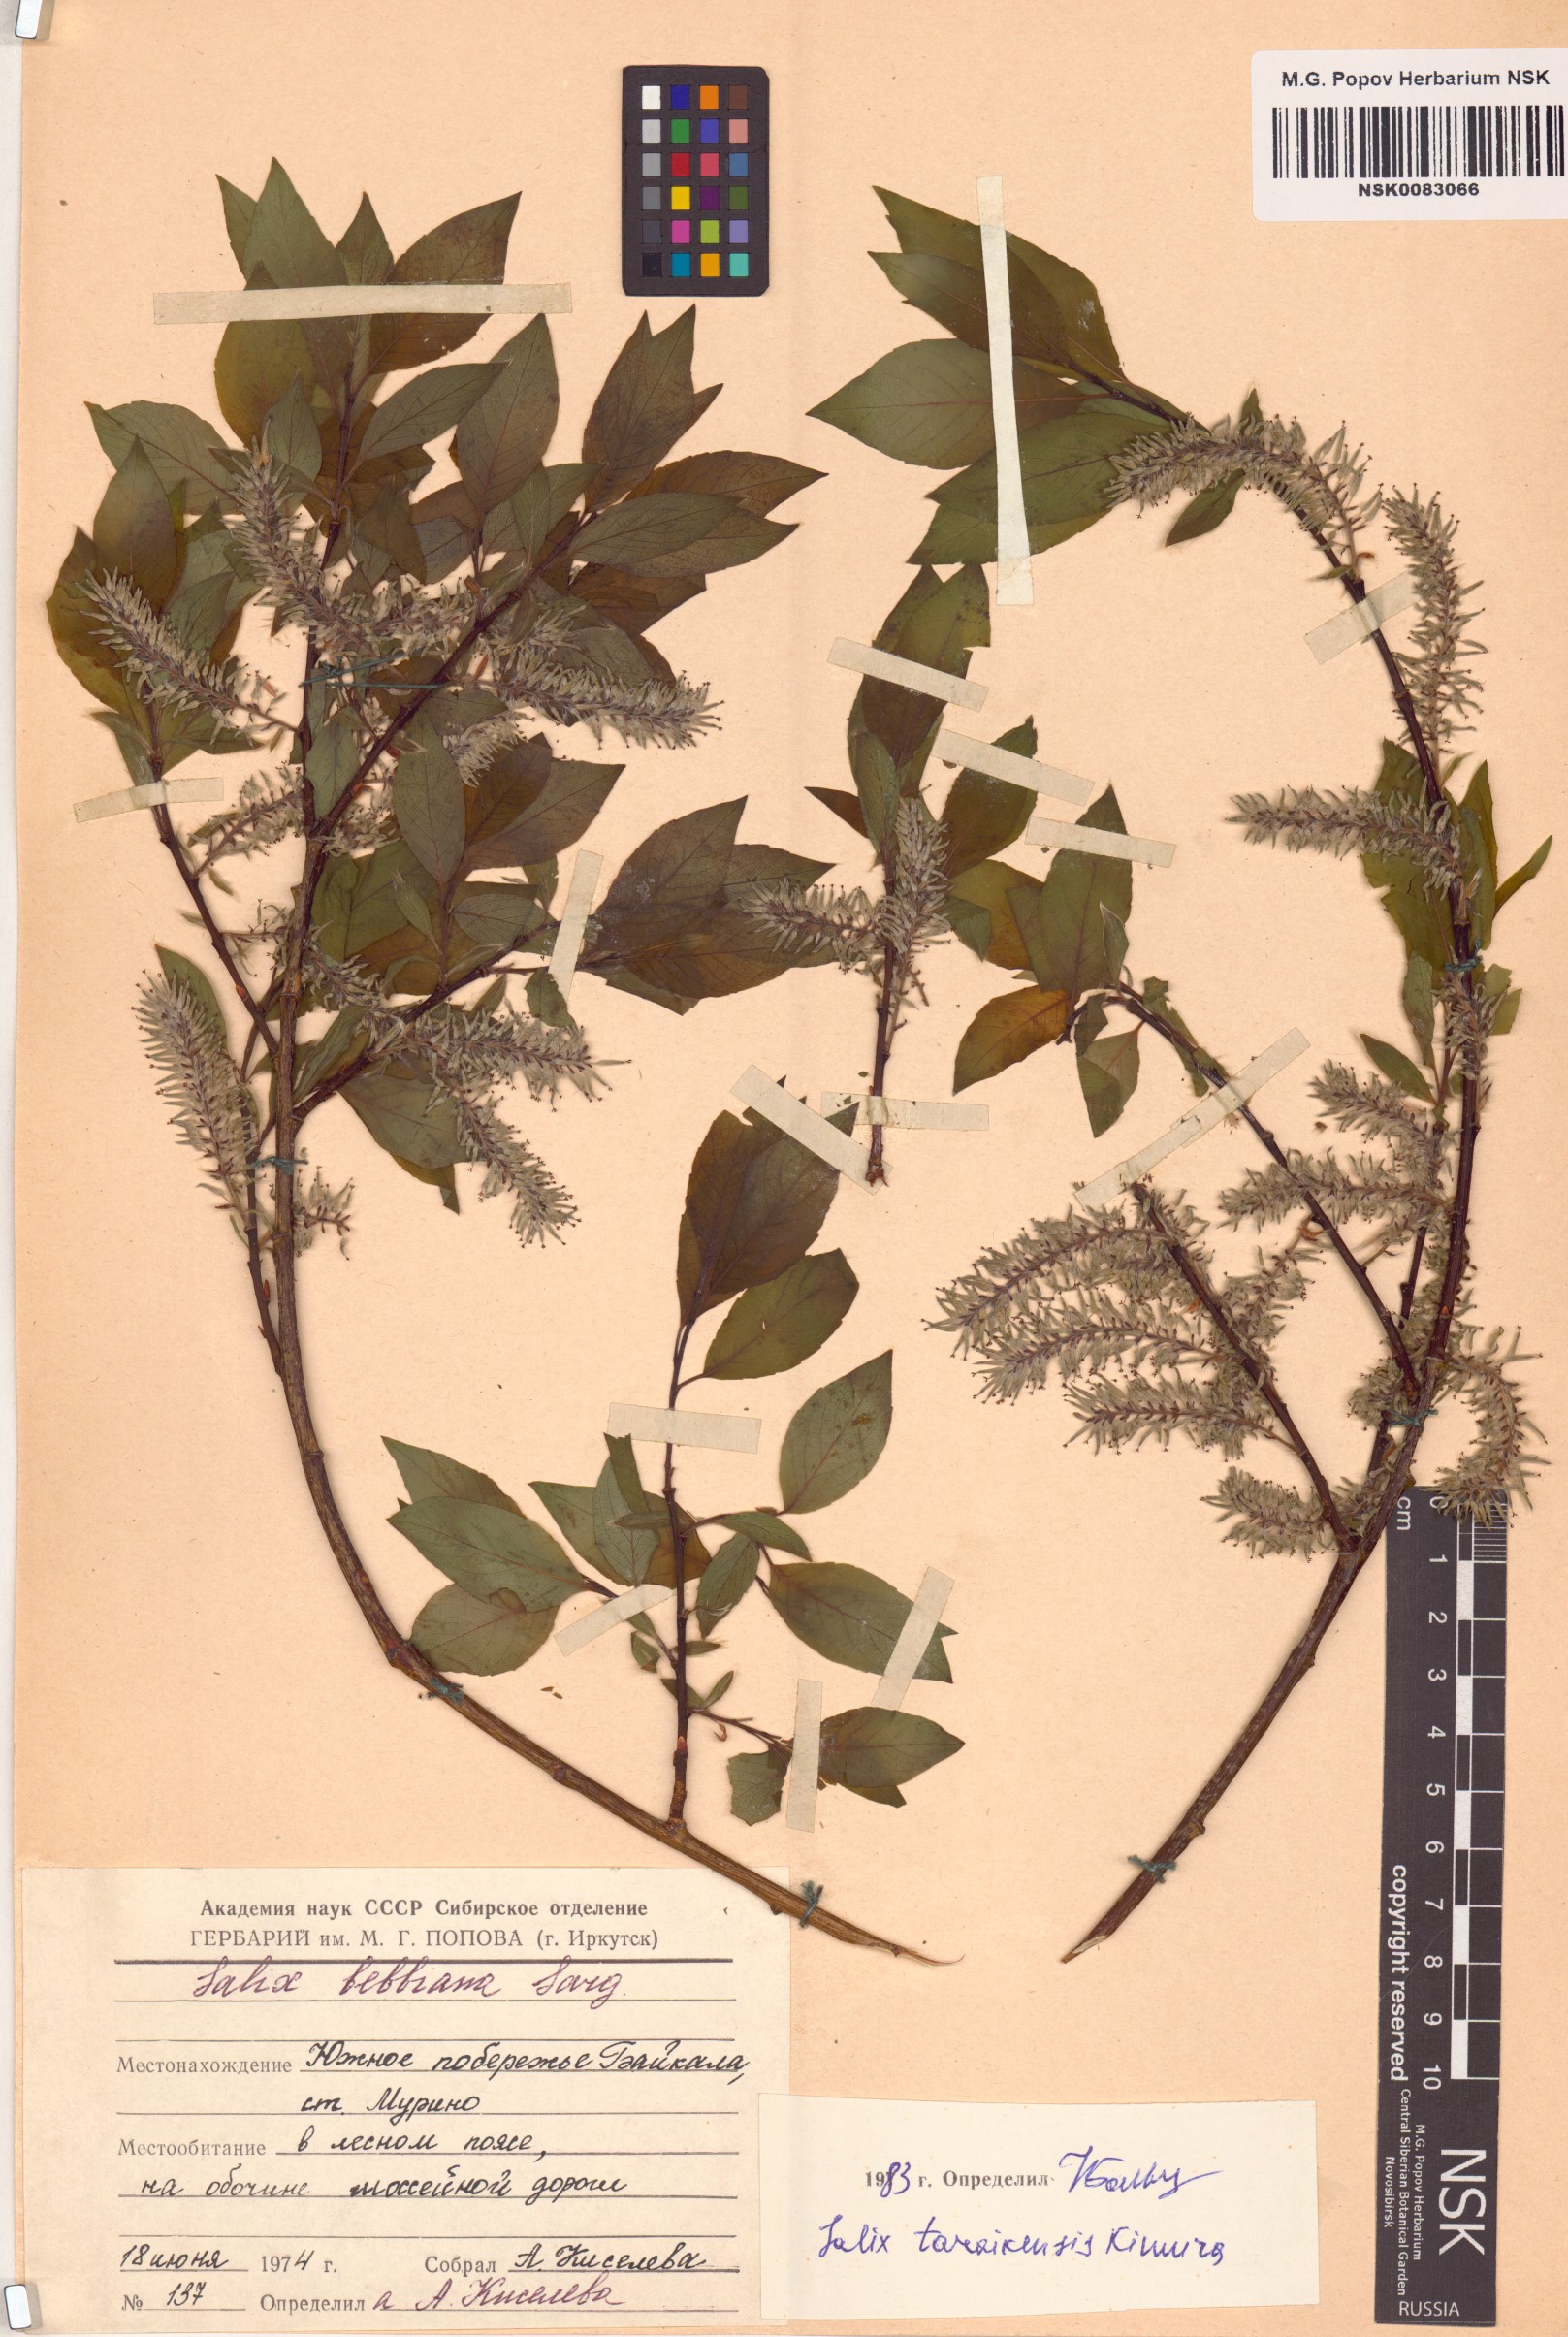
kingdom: Plantae
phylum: Tracheophyta
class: Magnoliopsida
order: Malpighiales
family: Salicaceae
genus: Salix
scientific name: Salix taraikensis
